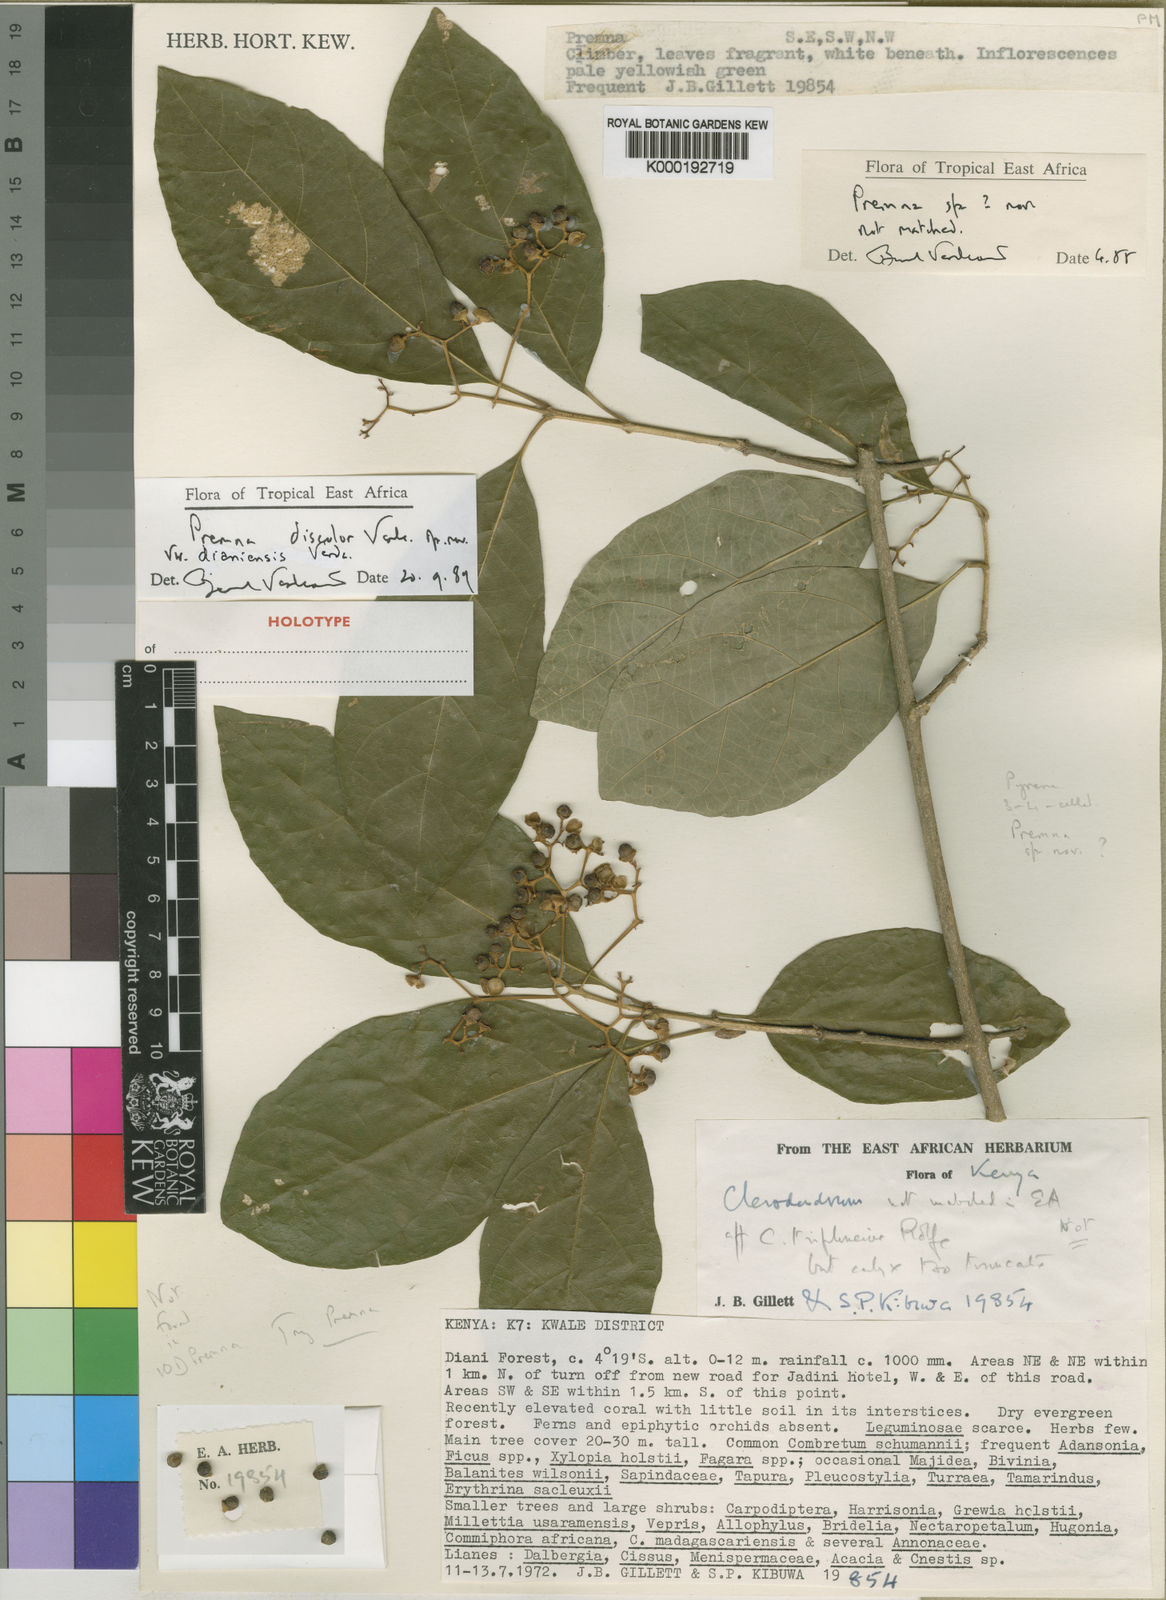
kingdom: Plantae
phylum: Tracheophyta
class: Magnoliopsida
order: Lamiales
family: Lamiaceae
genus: Premna
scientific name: Premna discolor
